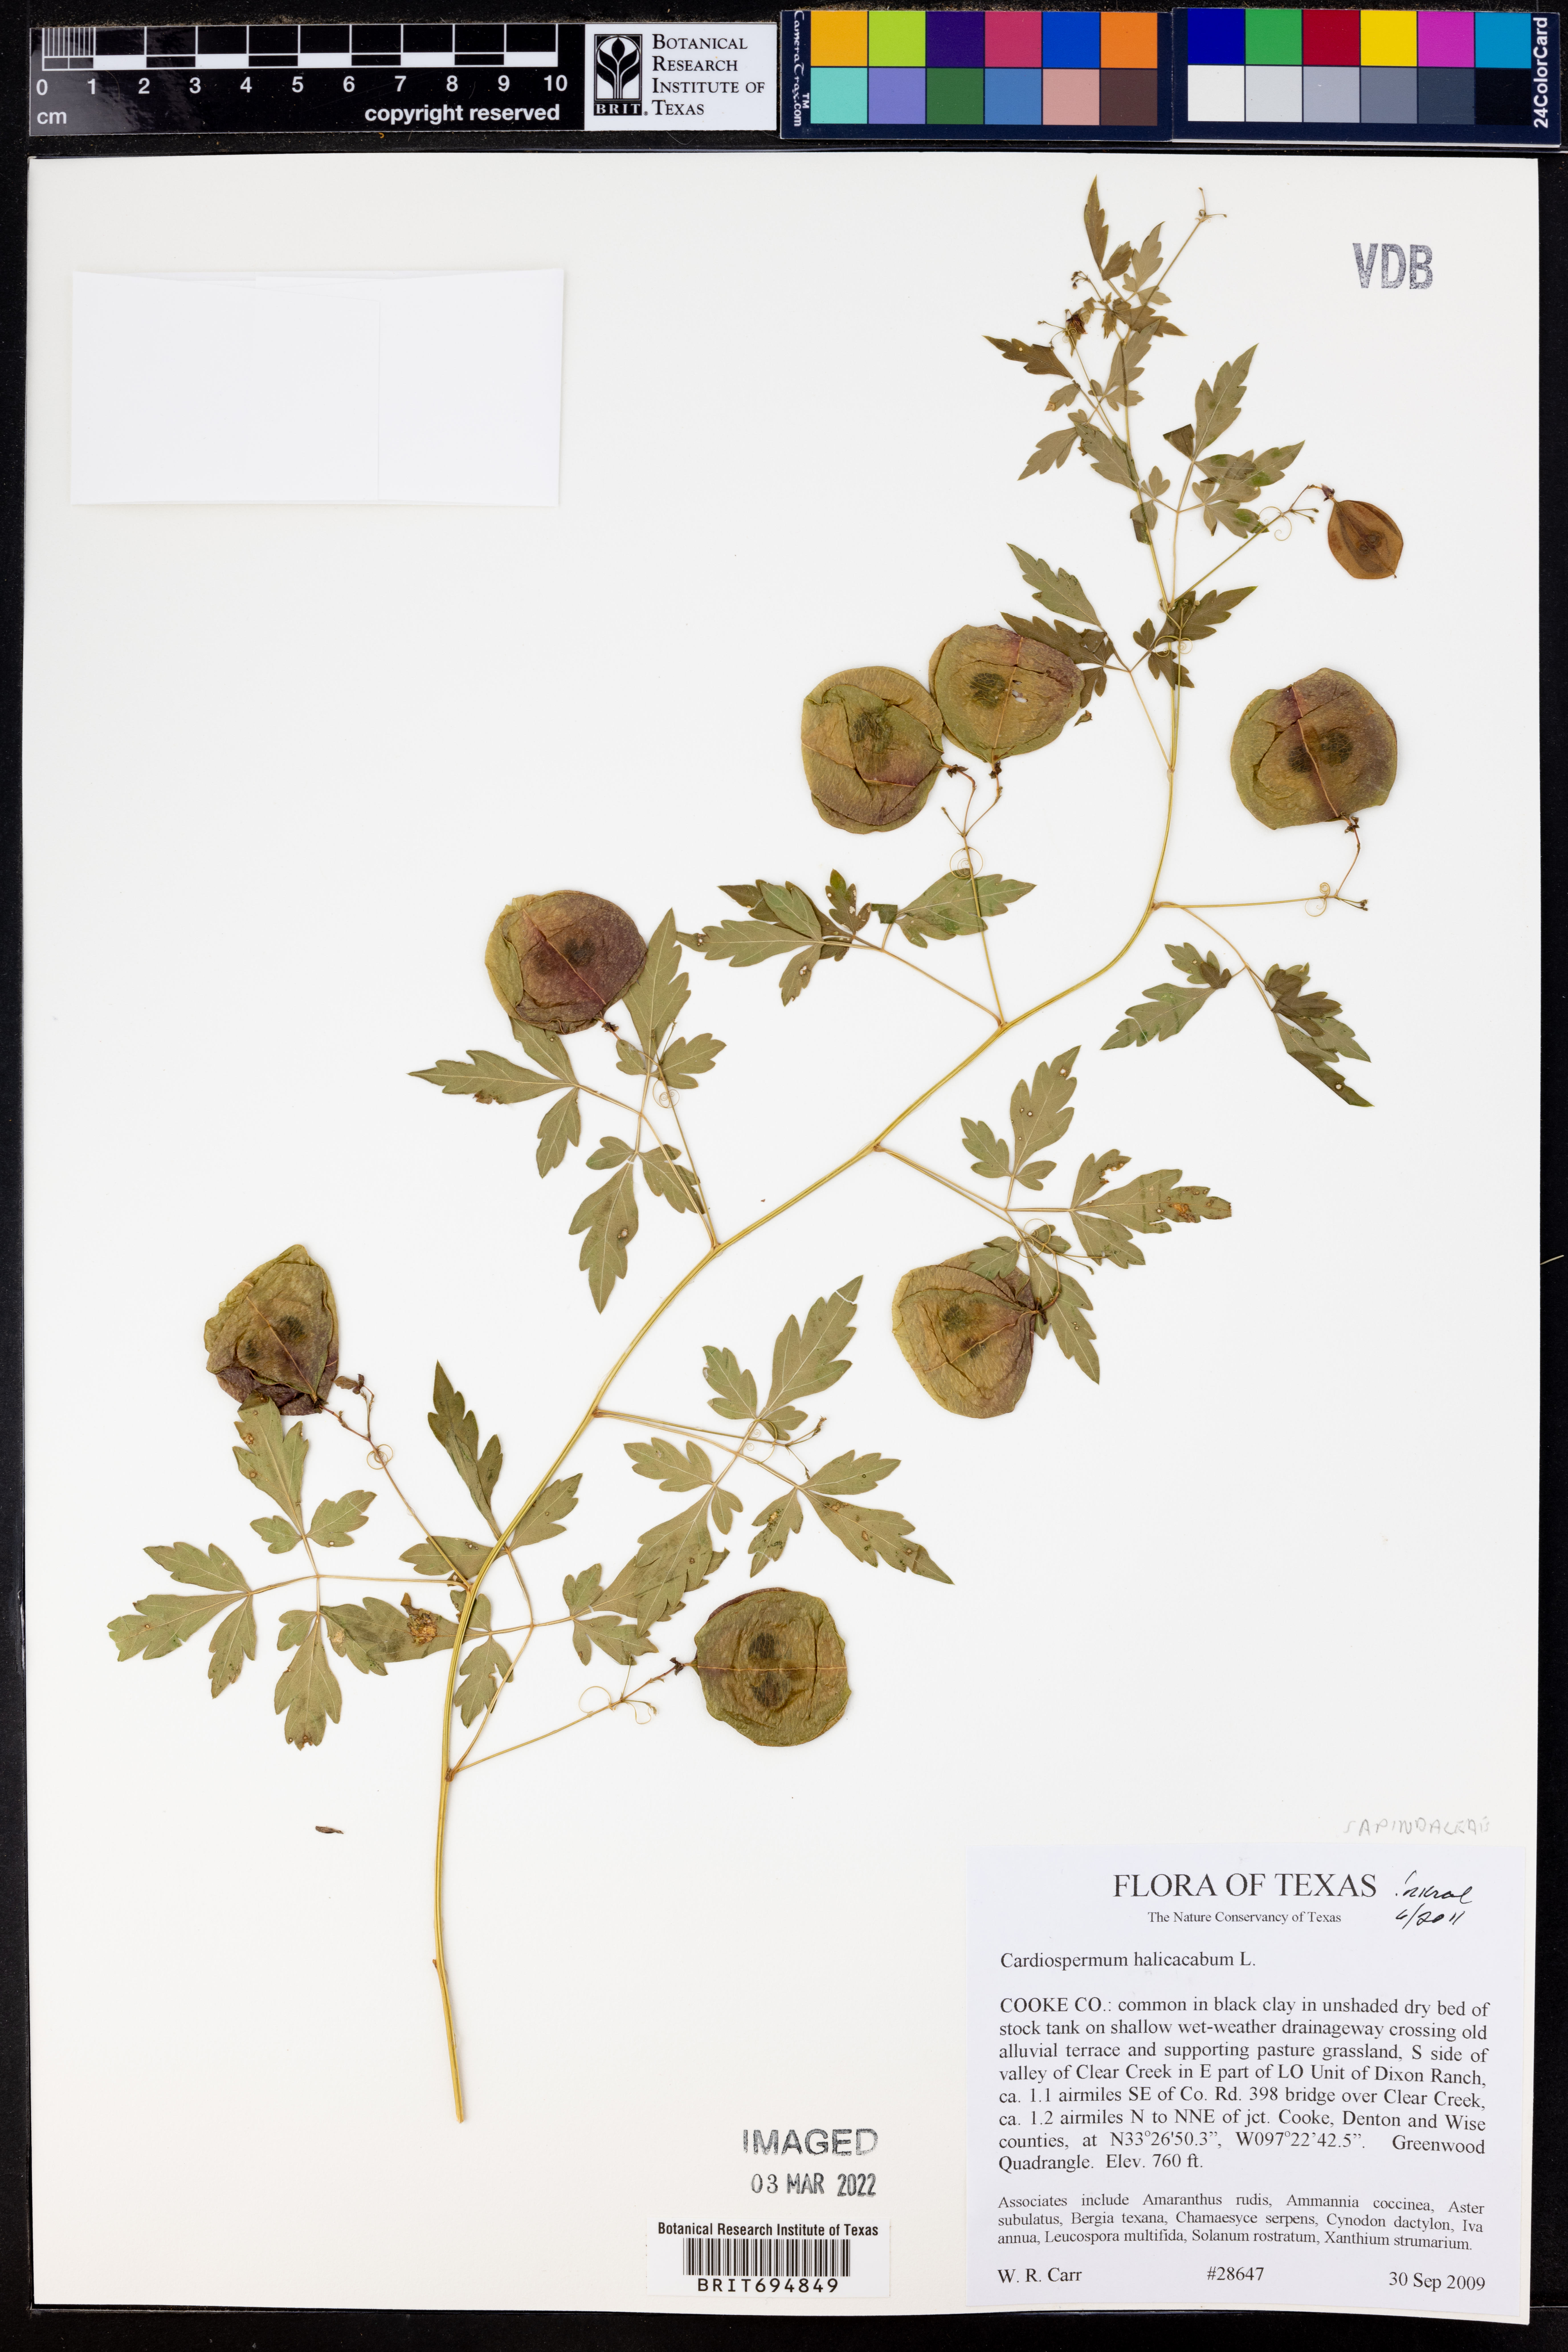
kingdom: Plantae
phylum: Tracheophyta
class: Magnoliopsida
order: Sapindales
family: Sapindaceae
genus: Cardiospermum
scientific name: Cardiospermum halicacabum
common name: Balloon vine
